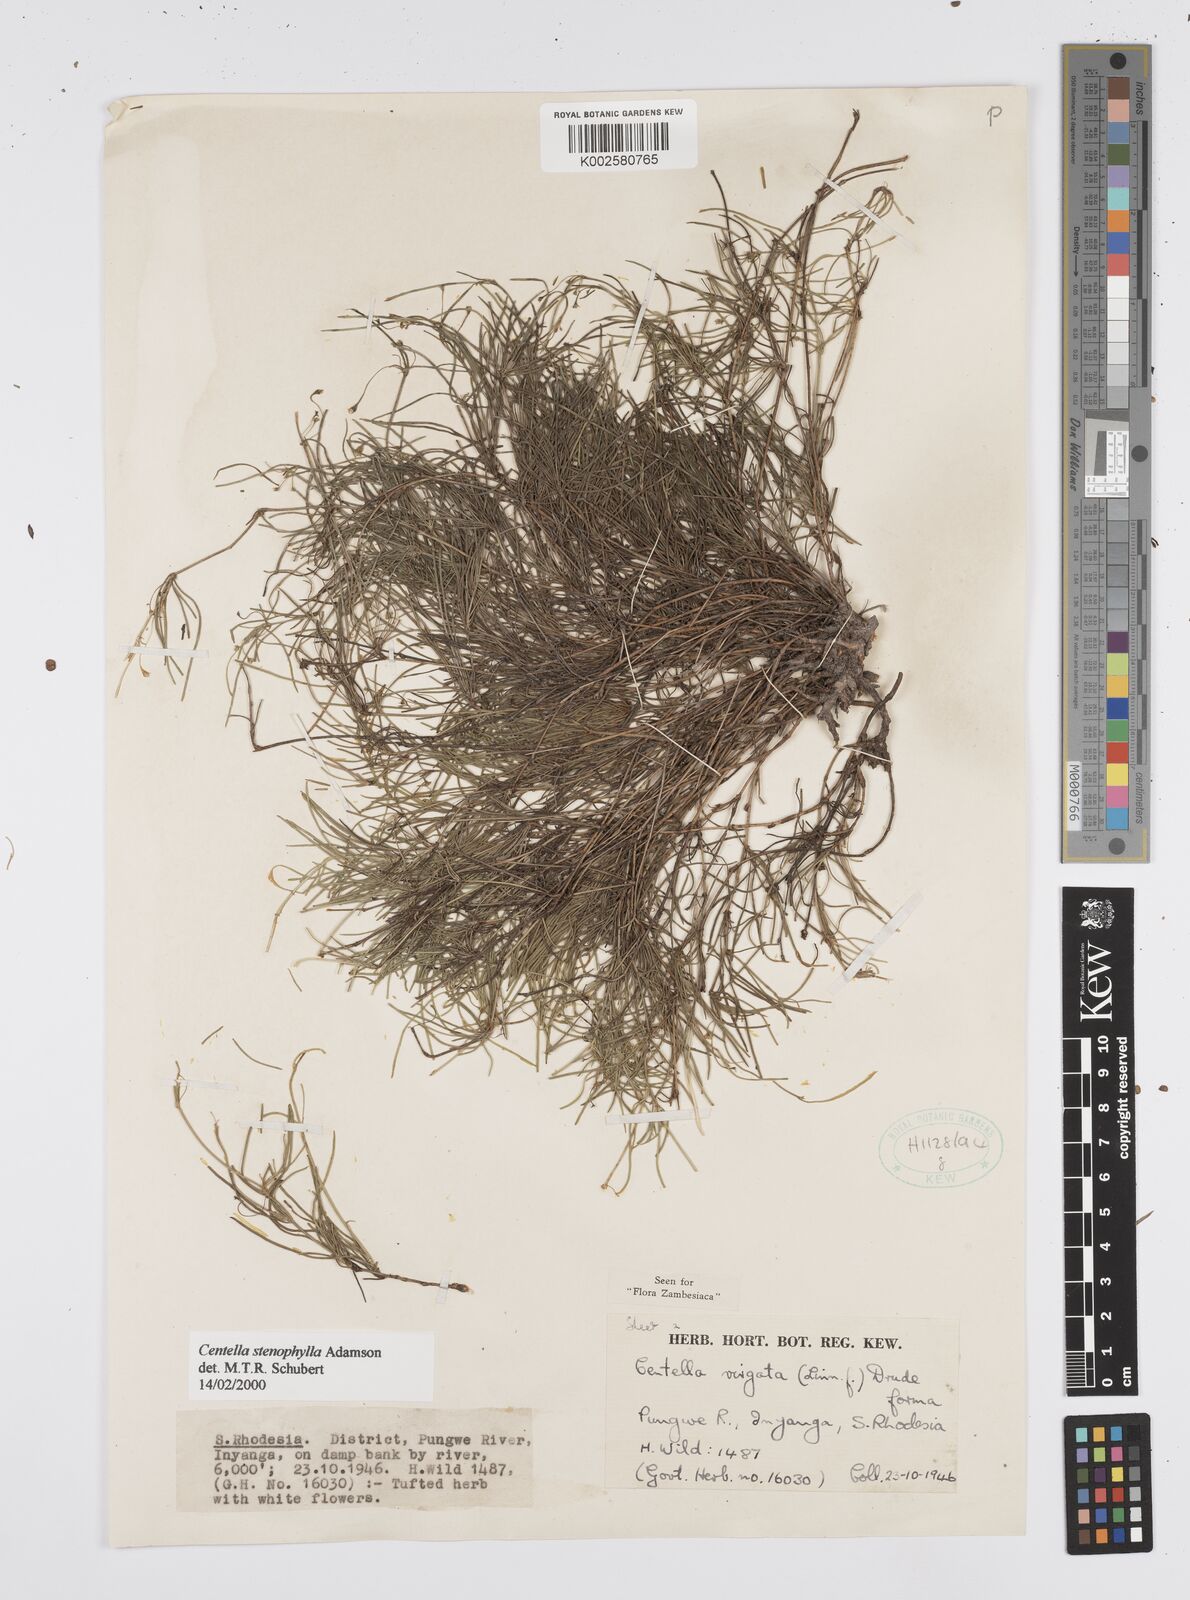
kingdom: Plantae
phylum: Tracheophyta
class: Magnoliopsida
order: Apiales
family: Apiaceae
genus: Centella
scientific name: Centella stenophylla
